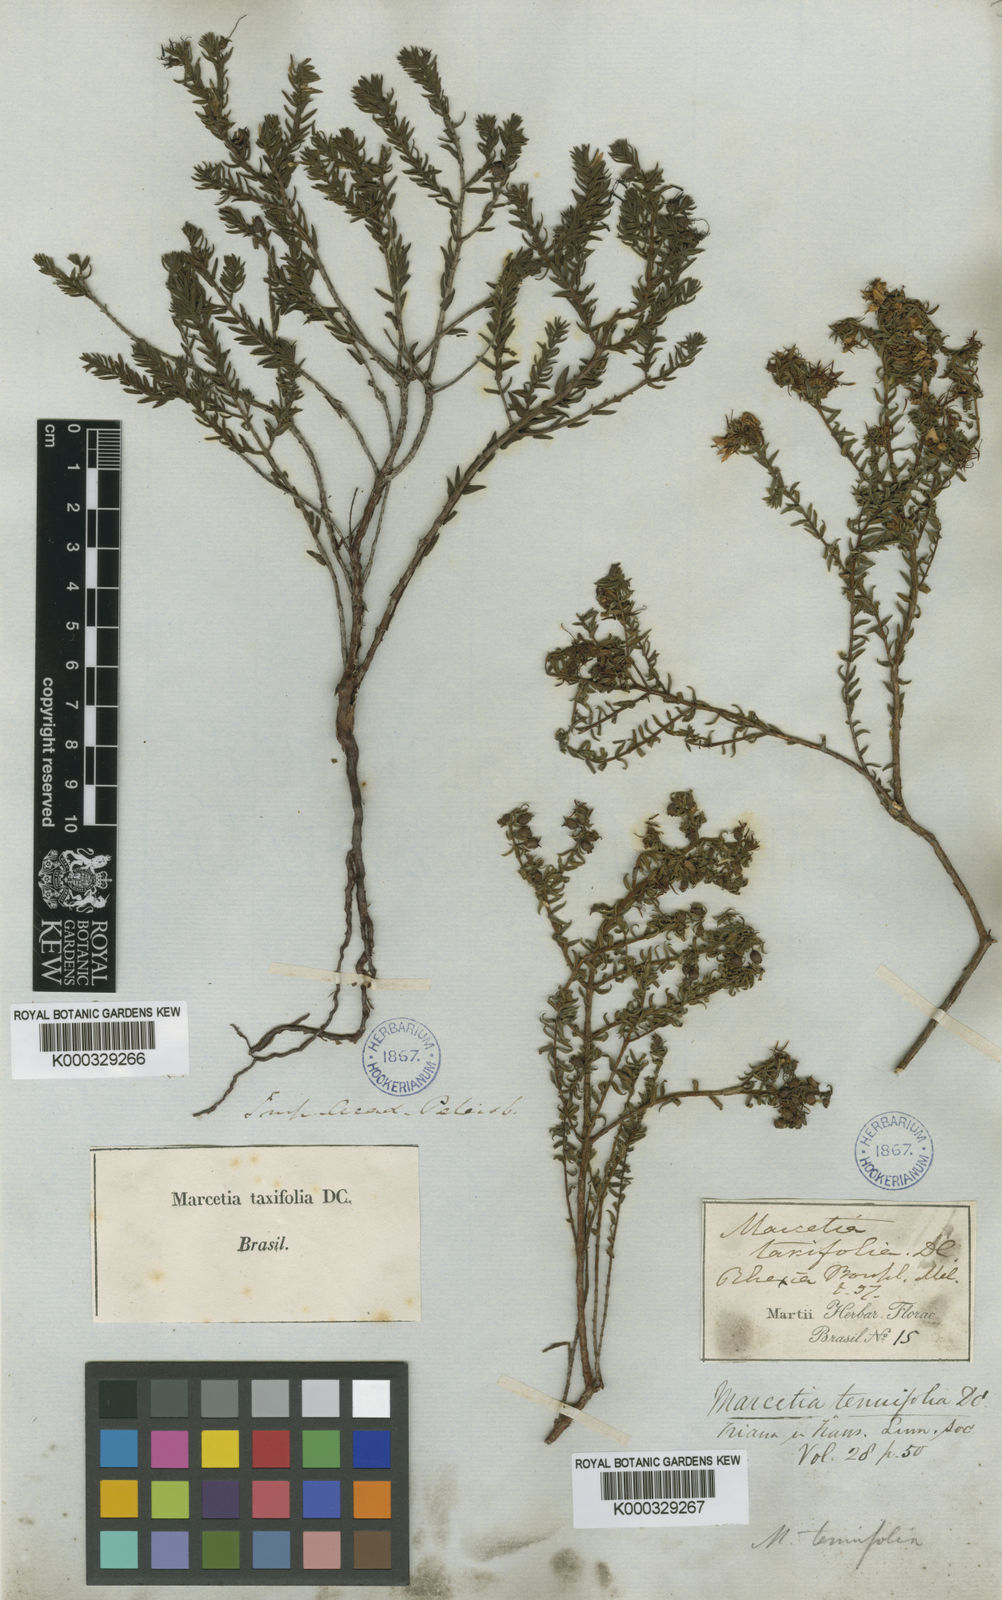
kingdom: Plantae
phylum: Tracheophyta
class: Magnoliopsida
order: Myrtales
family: Melastomataceae
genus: Marcetia
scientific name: Marcetia taxifolia
